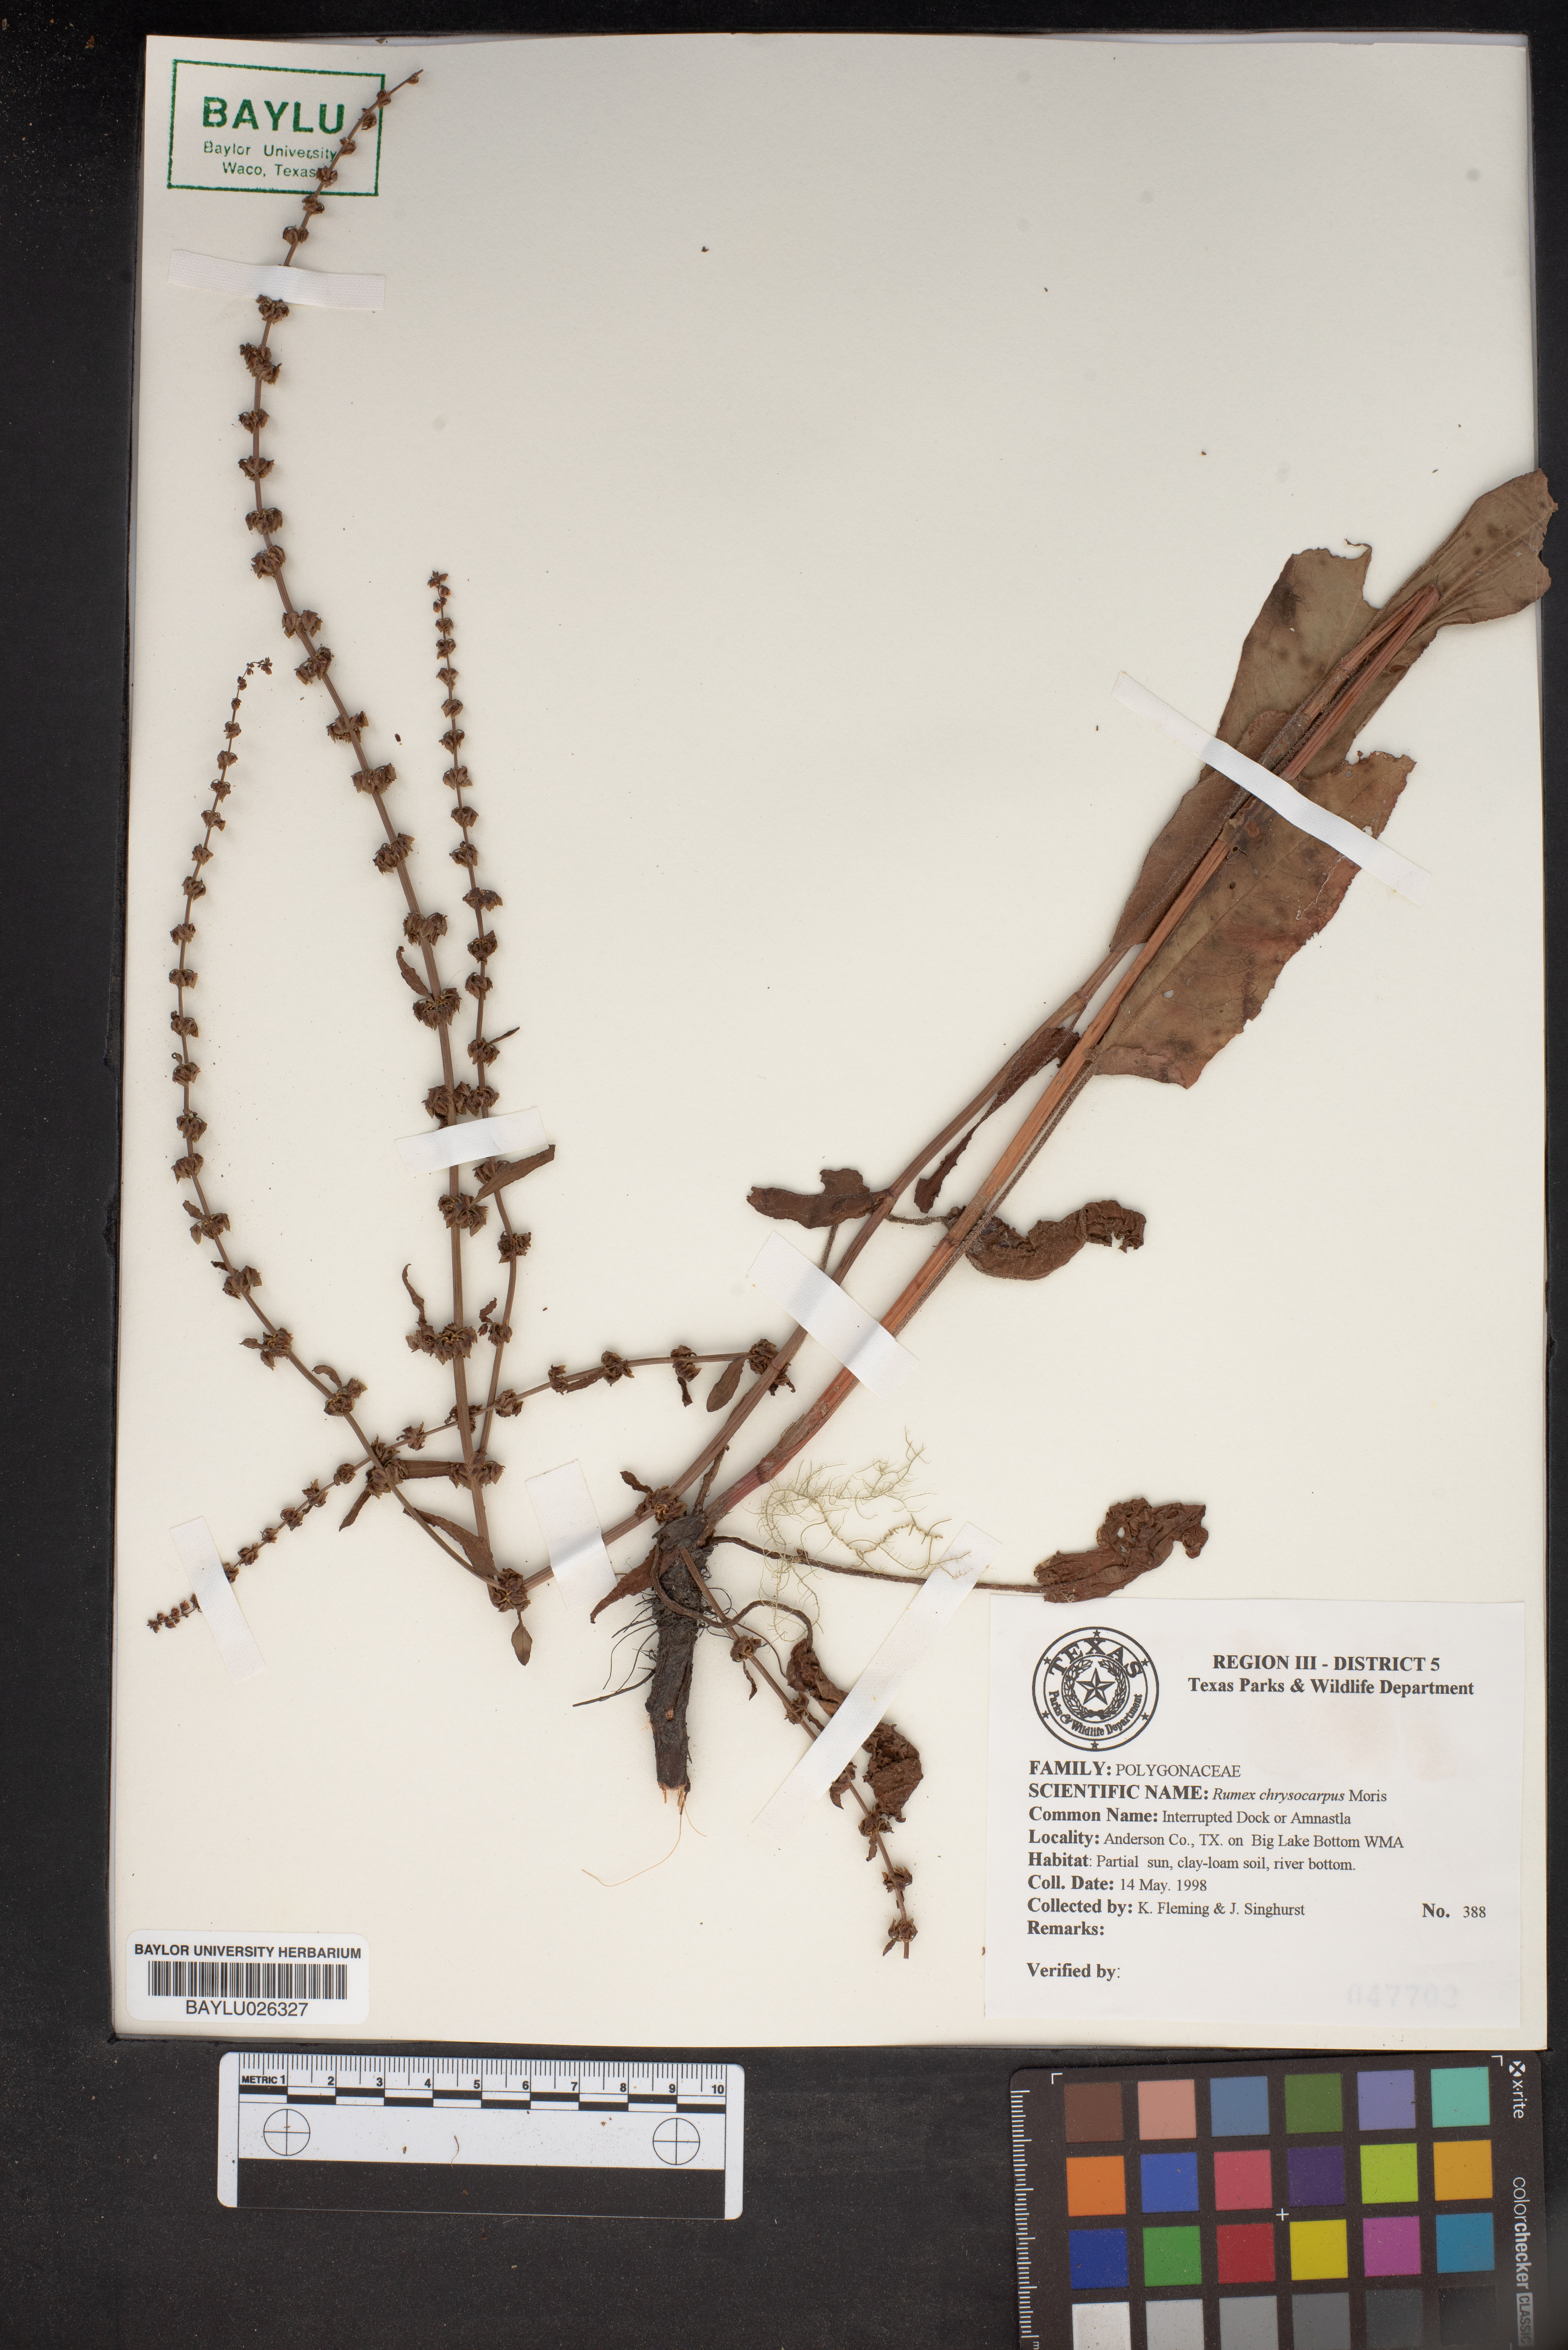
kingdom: Plantae
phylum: Tracheophyta
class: Magnoliopsida
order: Caryophyllales
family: Polygonaceae
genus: Rumex
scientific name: Rumex chrysocarpus
